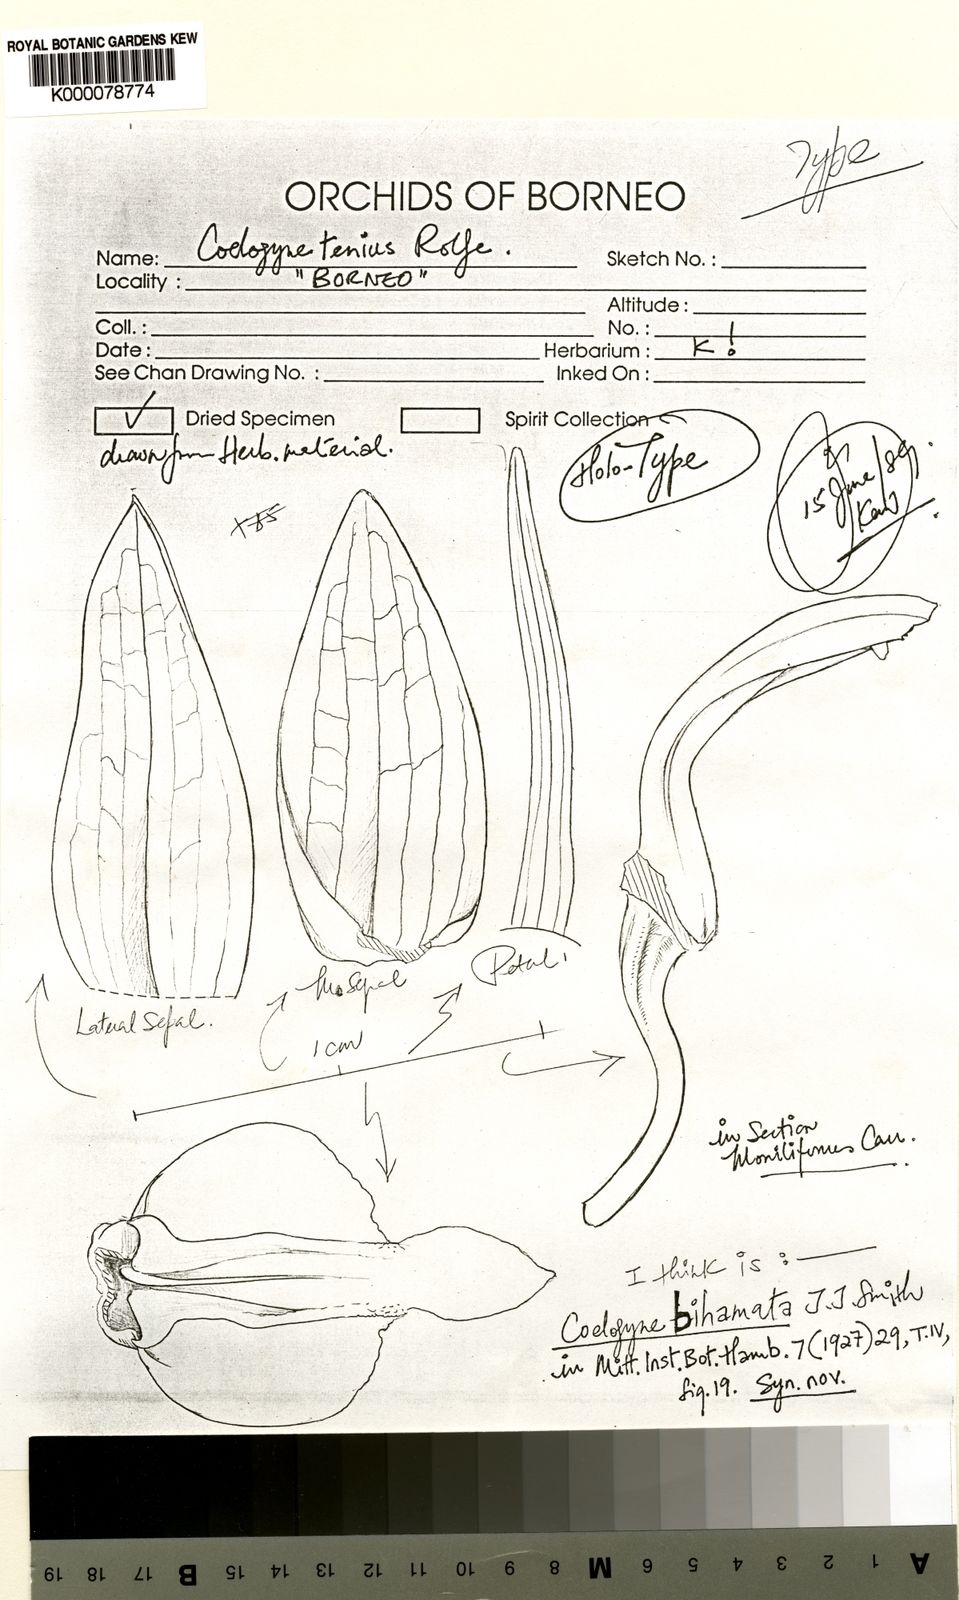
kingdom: Plantae
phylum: Tracheophyta
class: Liliopsida
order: Asparagales
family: Orchidaceae
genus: Coelogyne
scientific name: Coelogyne tenuis
